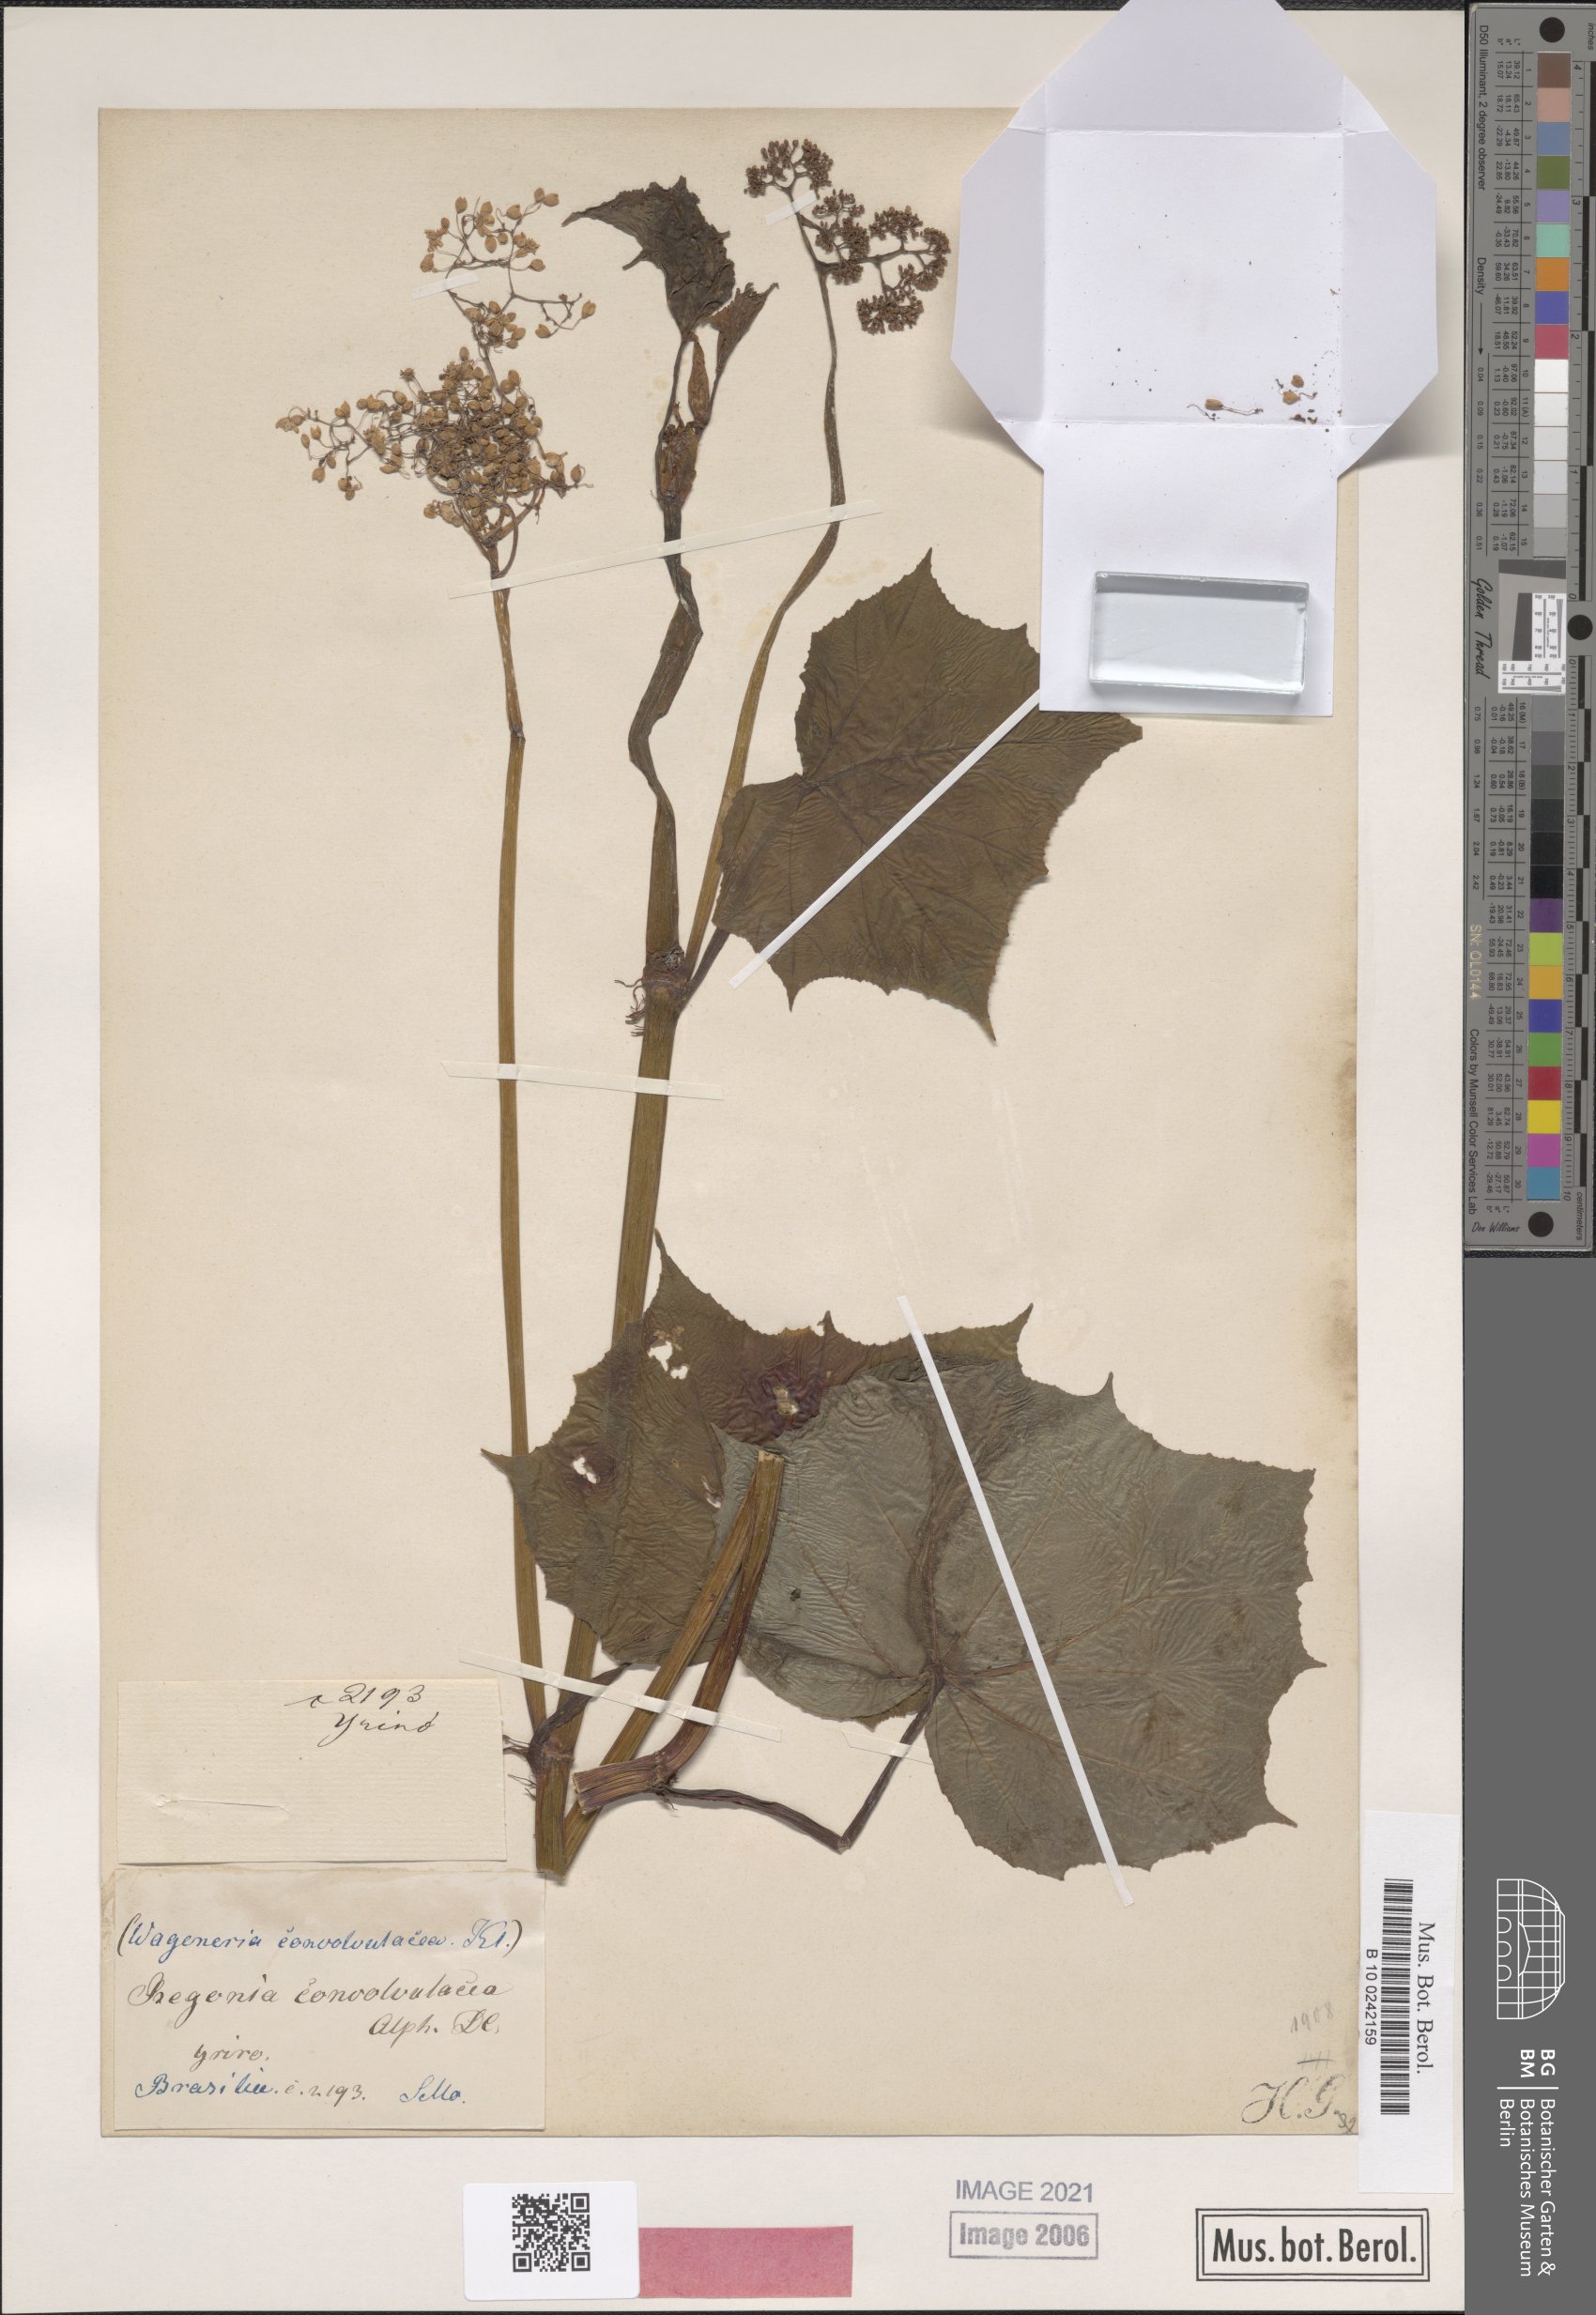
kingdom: Plantae
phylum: Tracheophyta
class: Magnoliopsida
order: Cucurbitales
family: Begoniaceae
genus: Begonia
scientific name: Begonia convolvulacea
